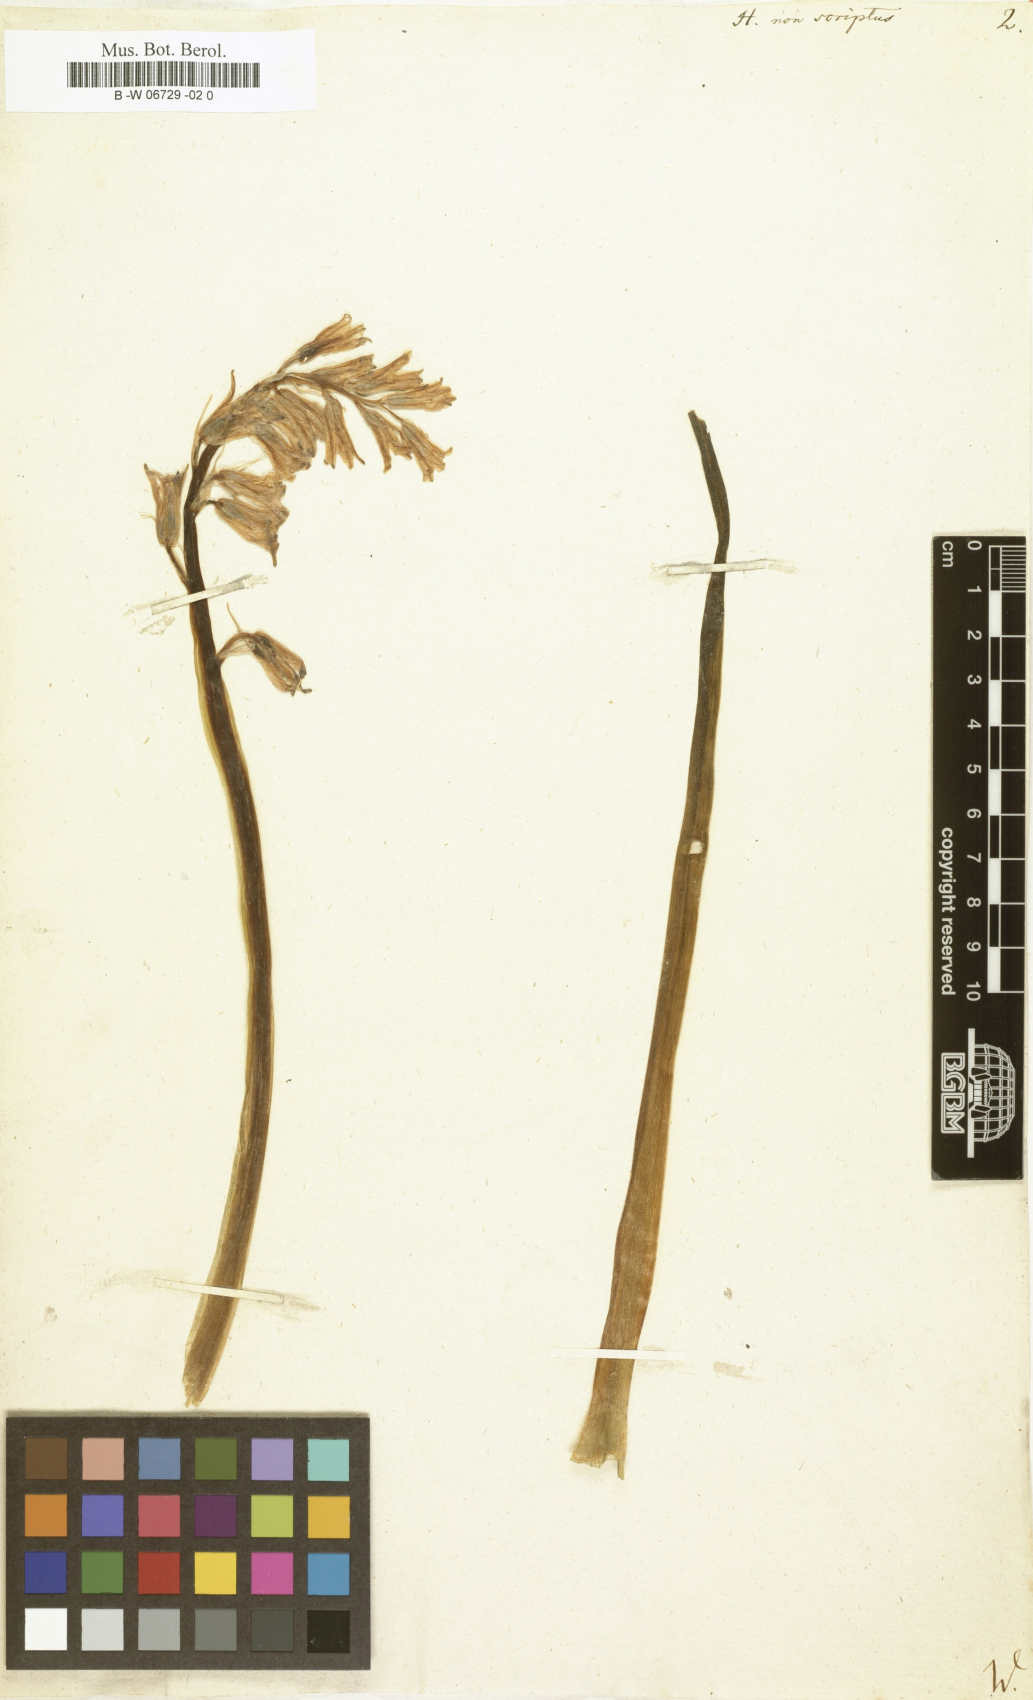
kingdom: Plantae
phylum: Tracheophyta
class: Liliopsida
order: Asparagales
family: Asparagaceae
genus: Hyacinthus
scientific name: Hyacinthus non-scriptus
